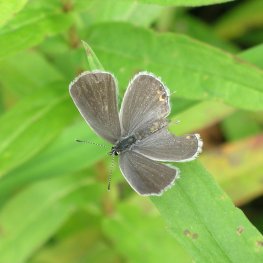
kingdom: Animalia
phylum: Arthropoda
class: Insecta
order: Lepidoptera
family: Lycaenidae
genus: Elkalyce
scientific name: Elkalyce comyntas
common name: Eastern Tailed-Blue
